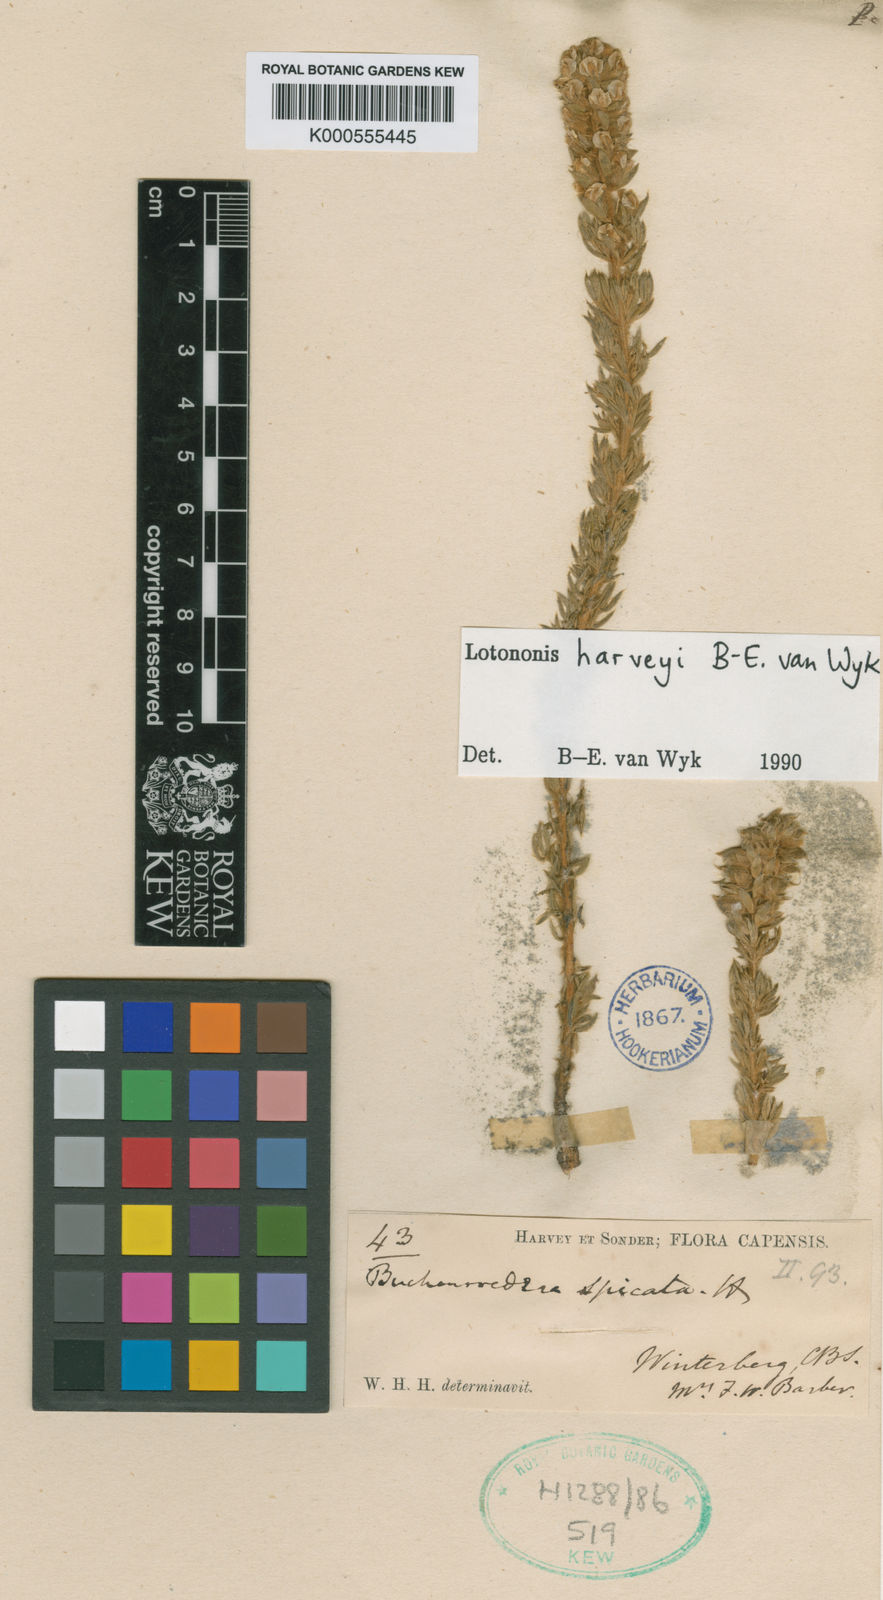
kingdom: Plantae
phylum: Tracheophyta
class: Magnoliopsida
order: Fabales
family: Fabaceae
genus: Lotononis
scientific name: Lotononis harveyi
